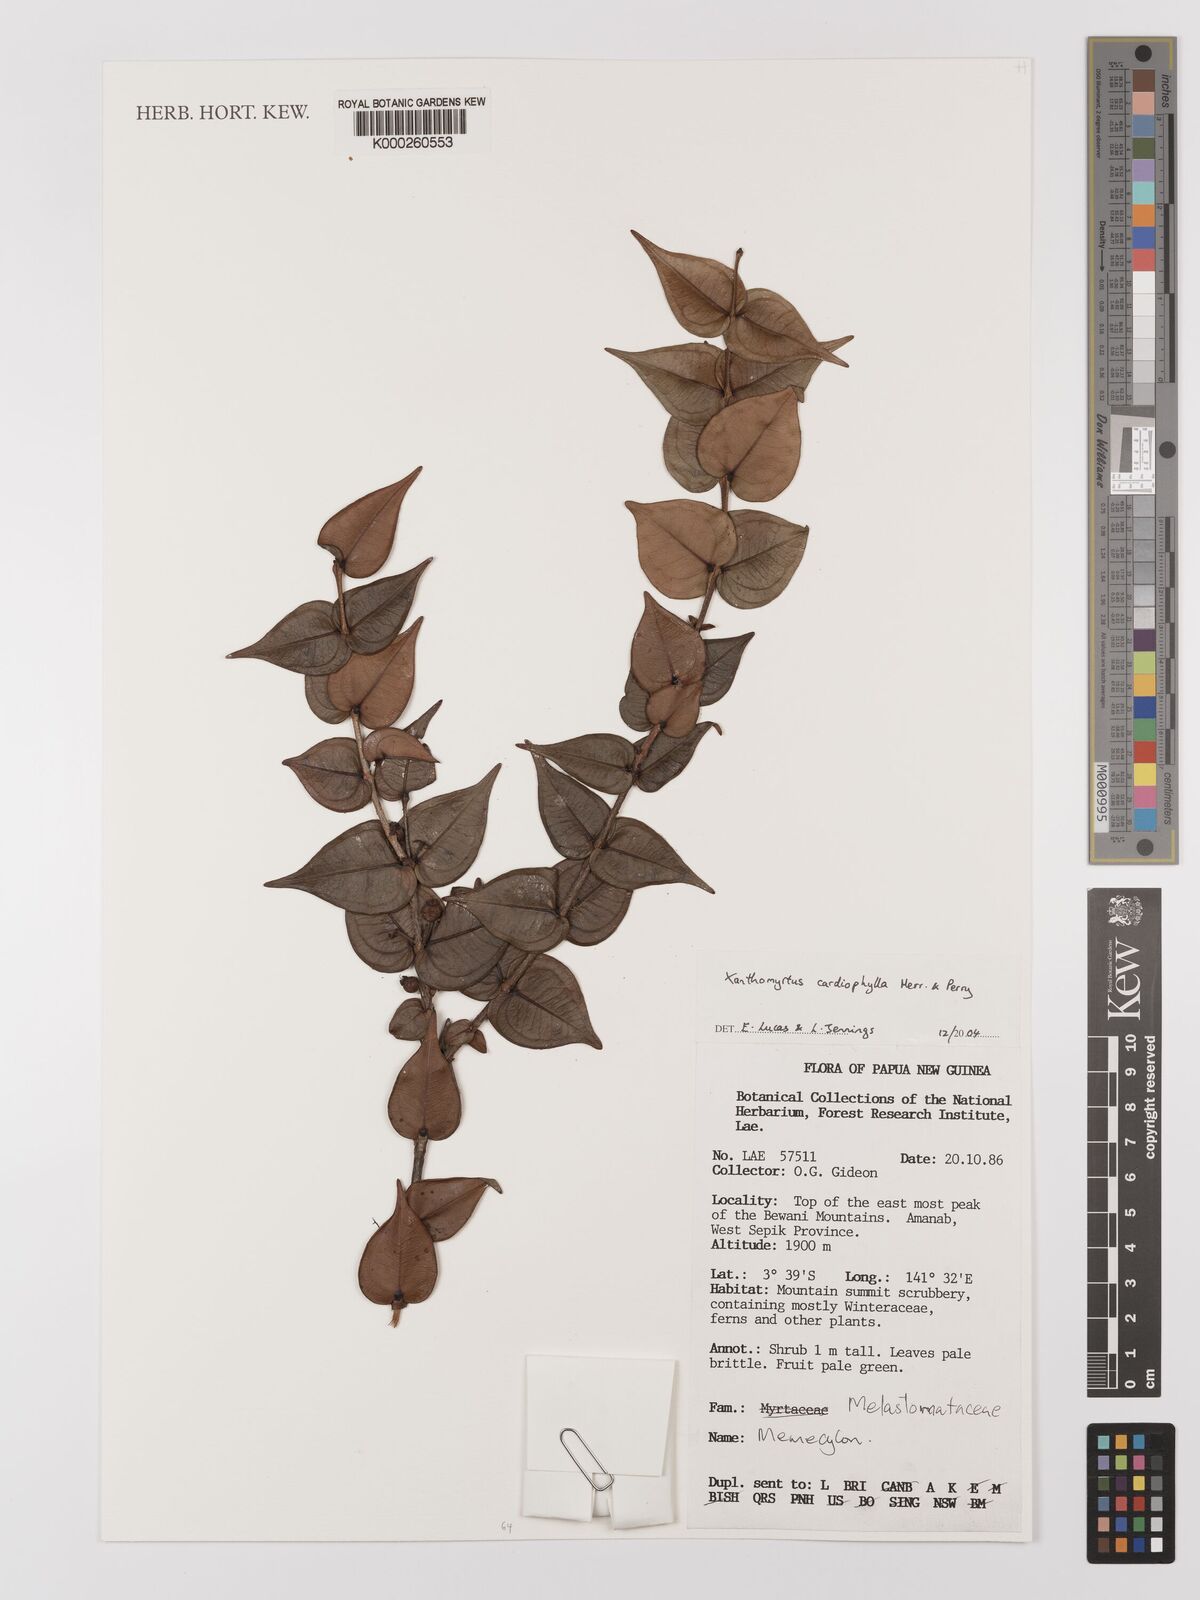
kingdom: Plantae
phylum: Tracheophyta
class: Magnoliopsida
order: Myrtales
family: Myrtaceae
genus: Xanthomyrtus
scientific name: Xanthomyrtus cardiophylla
